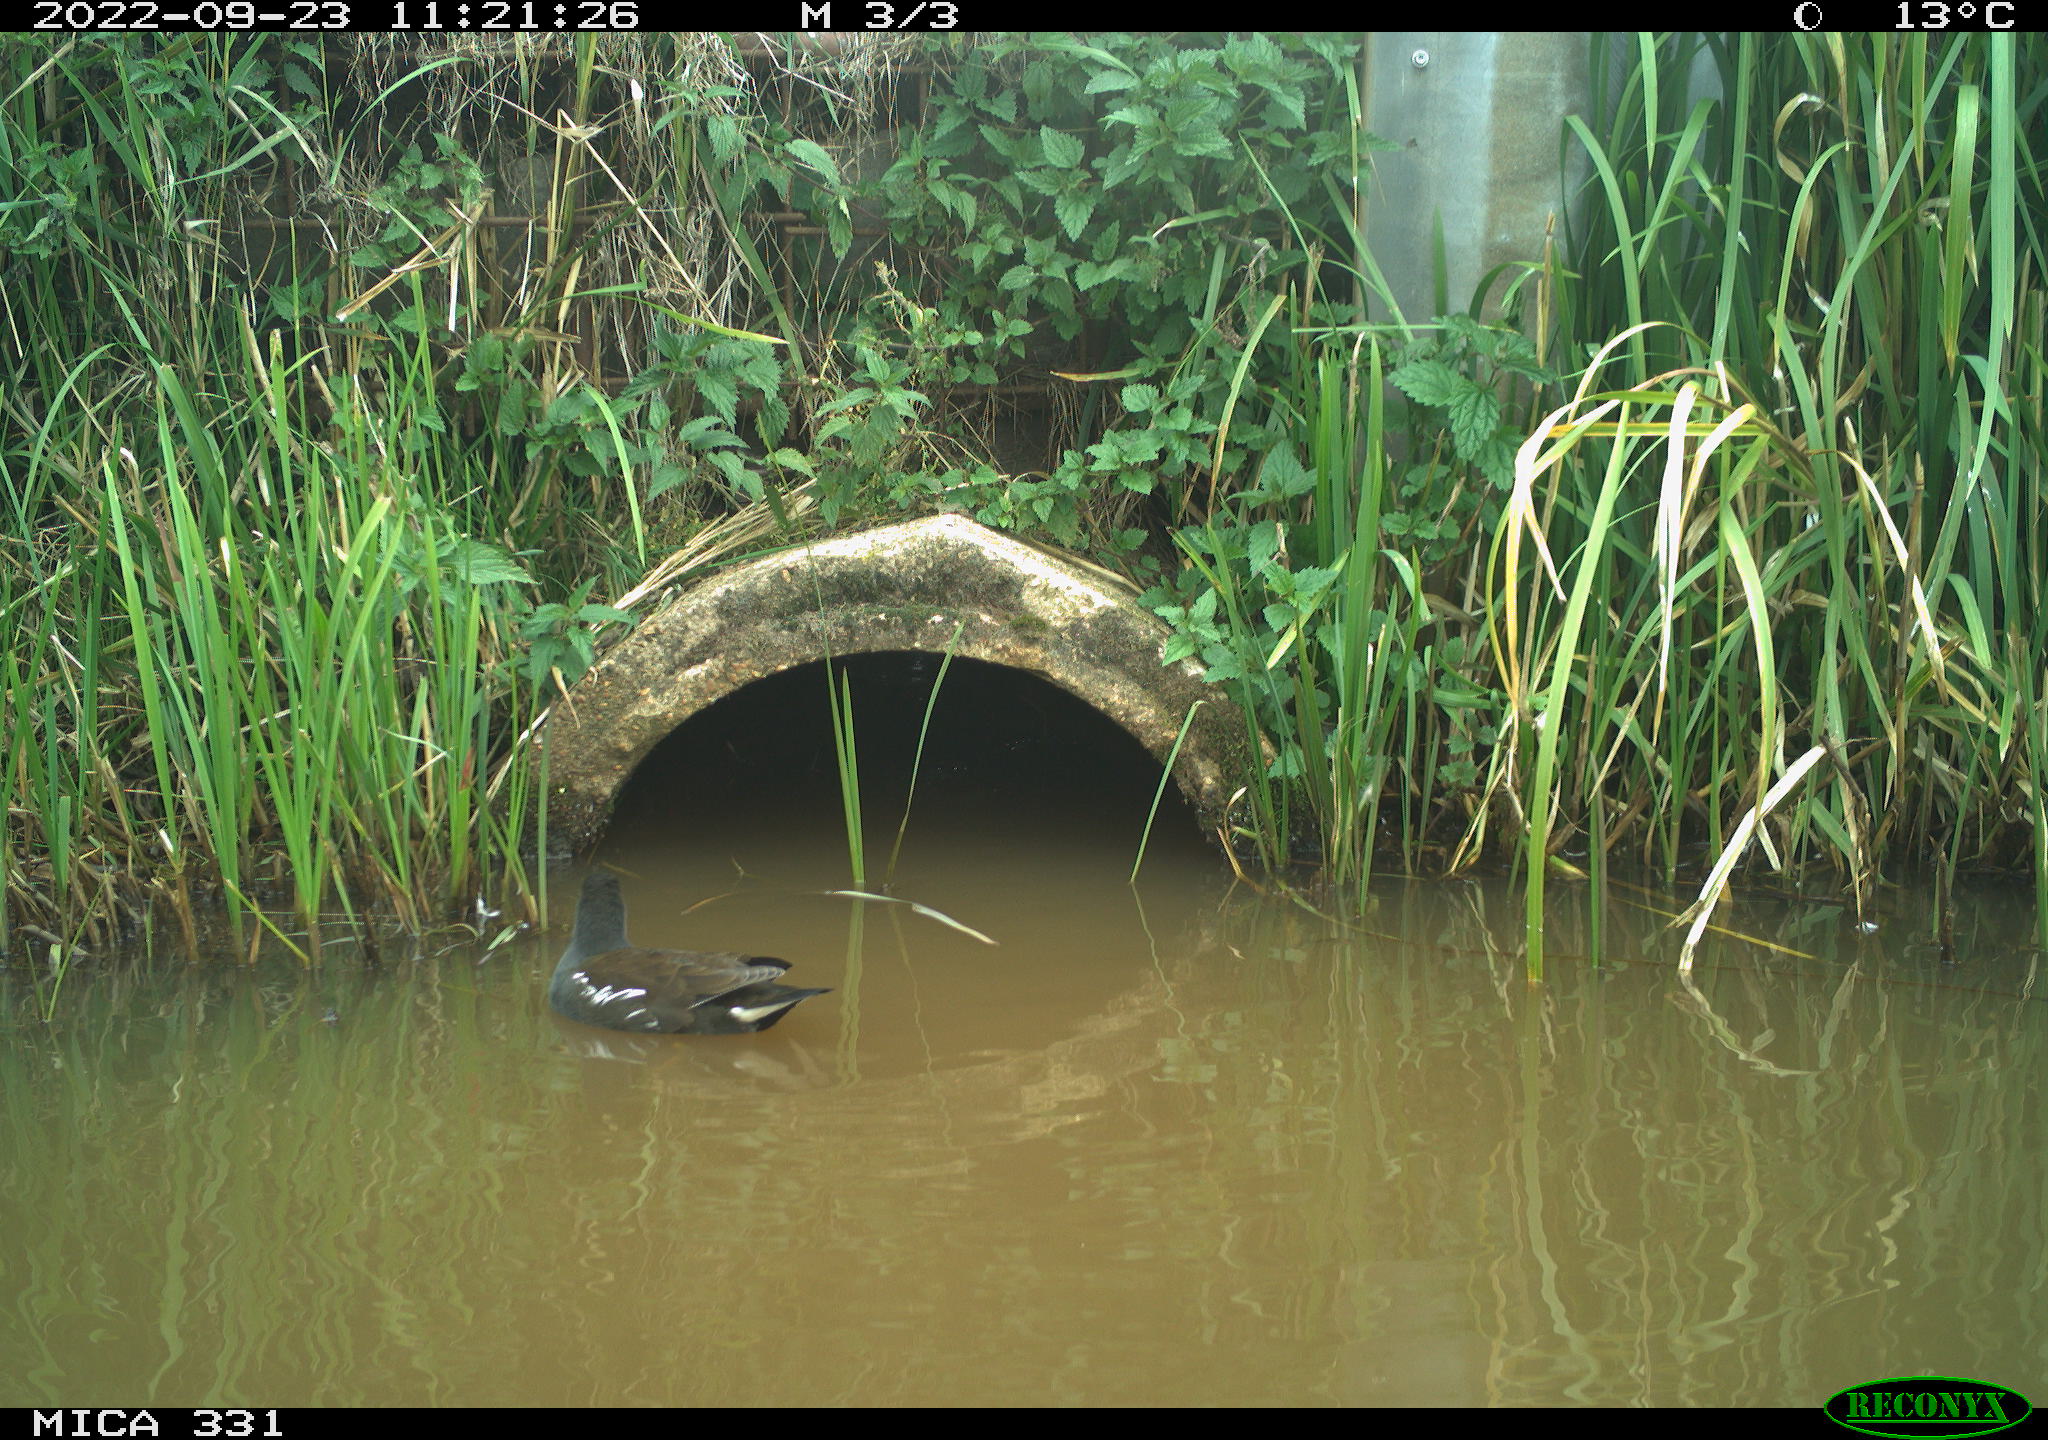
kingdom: Animalia
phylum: Chordata
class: Aves
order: Gruiformes
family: Rallidae
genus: Gallinula
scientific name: Gallinula chloropus
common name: Common moorhen
